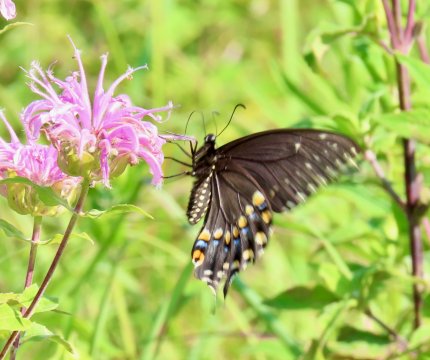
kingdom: Animalia
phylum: Arthropoda
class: Insecta
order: Lepidoptera
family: Papilionidae
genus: Papilio
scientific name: Papilio polyxenes
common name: Black Swallowtail
